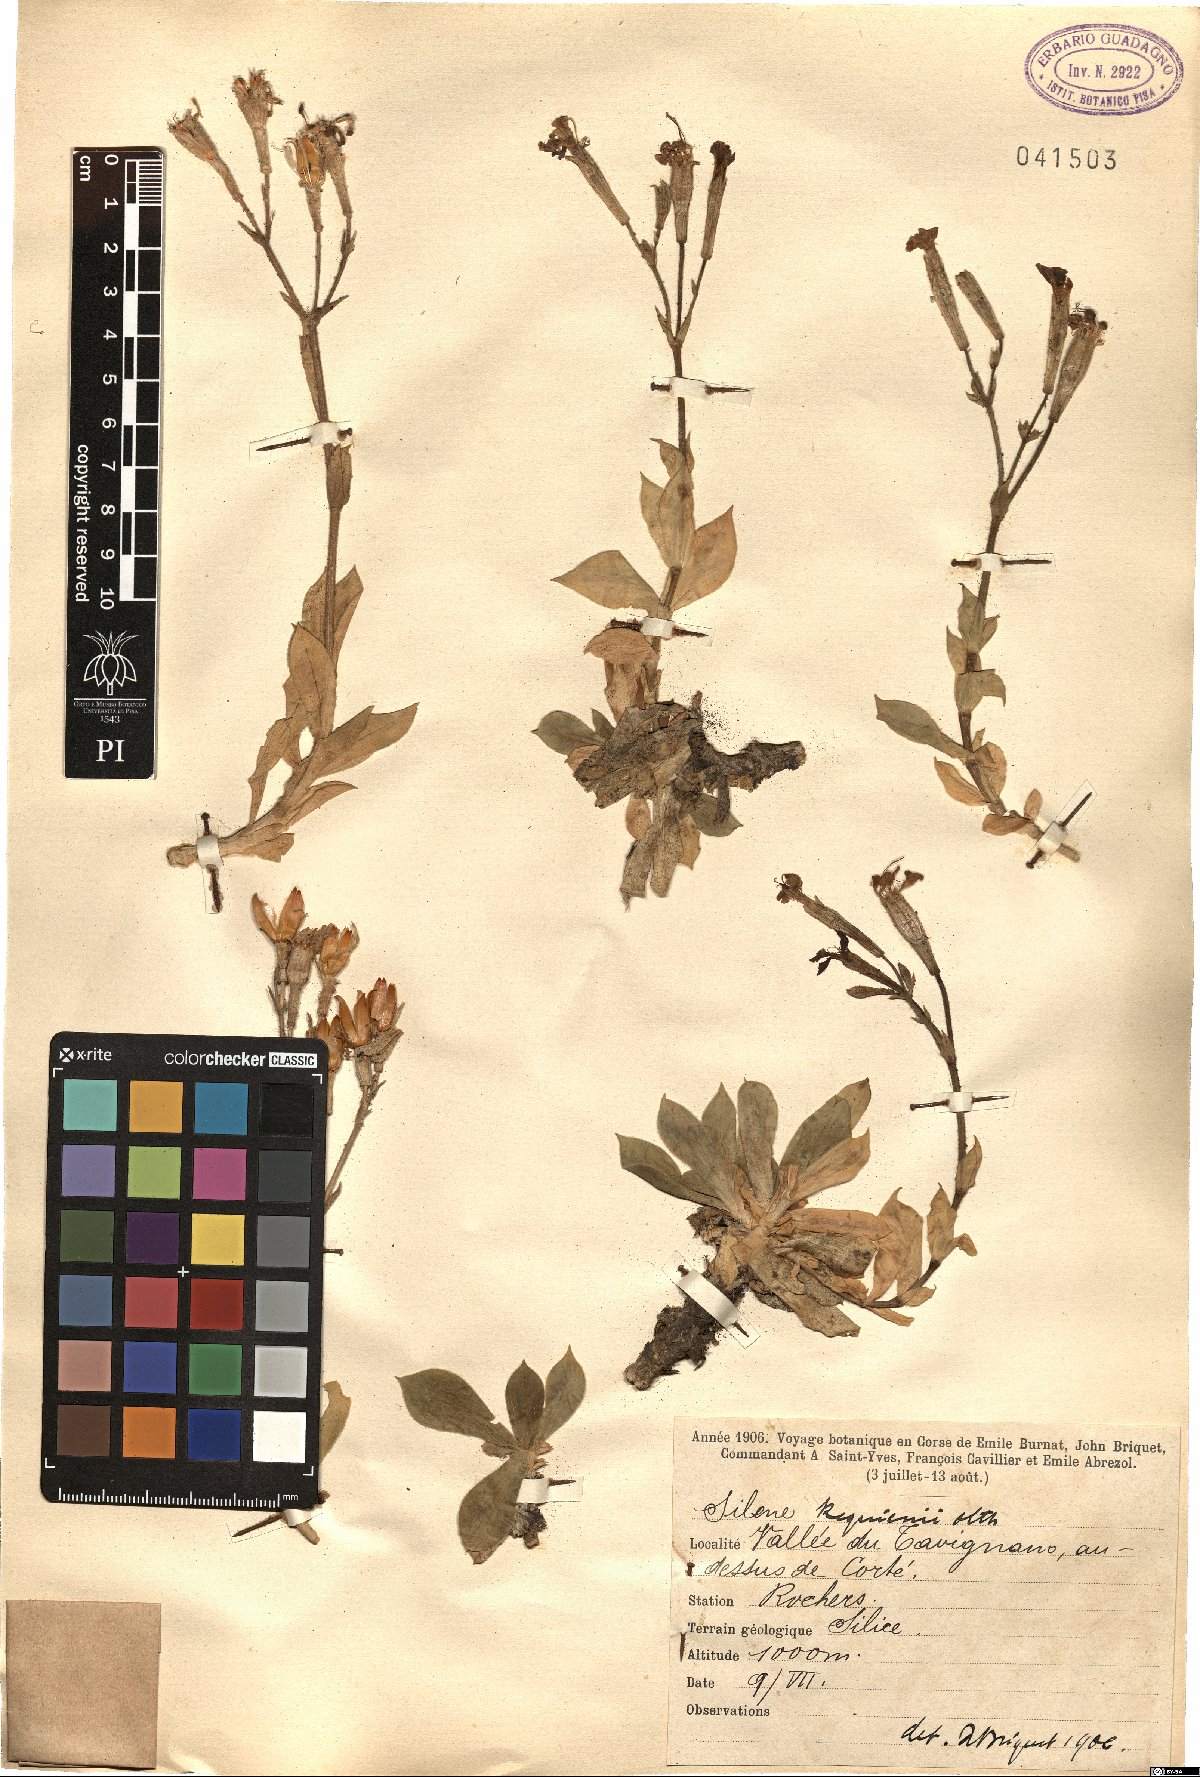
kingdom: Plantae
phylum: Tracheophyta
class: Magnoliopsida
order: Caryophyllales
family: Caryophyllaceae
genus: Silene
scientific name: Silene requienii
